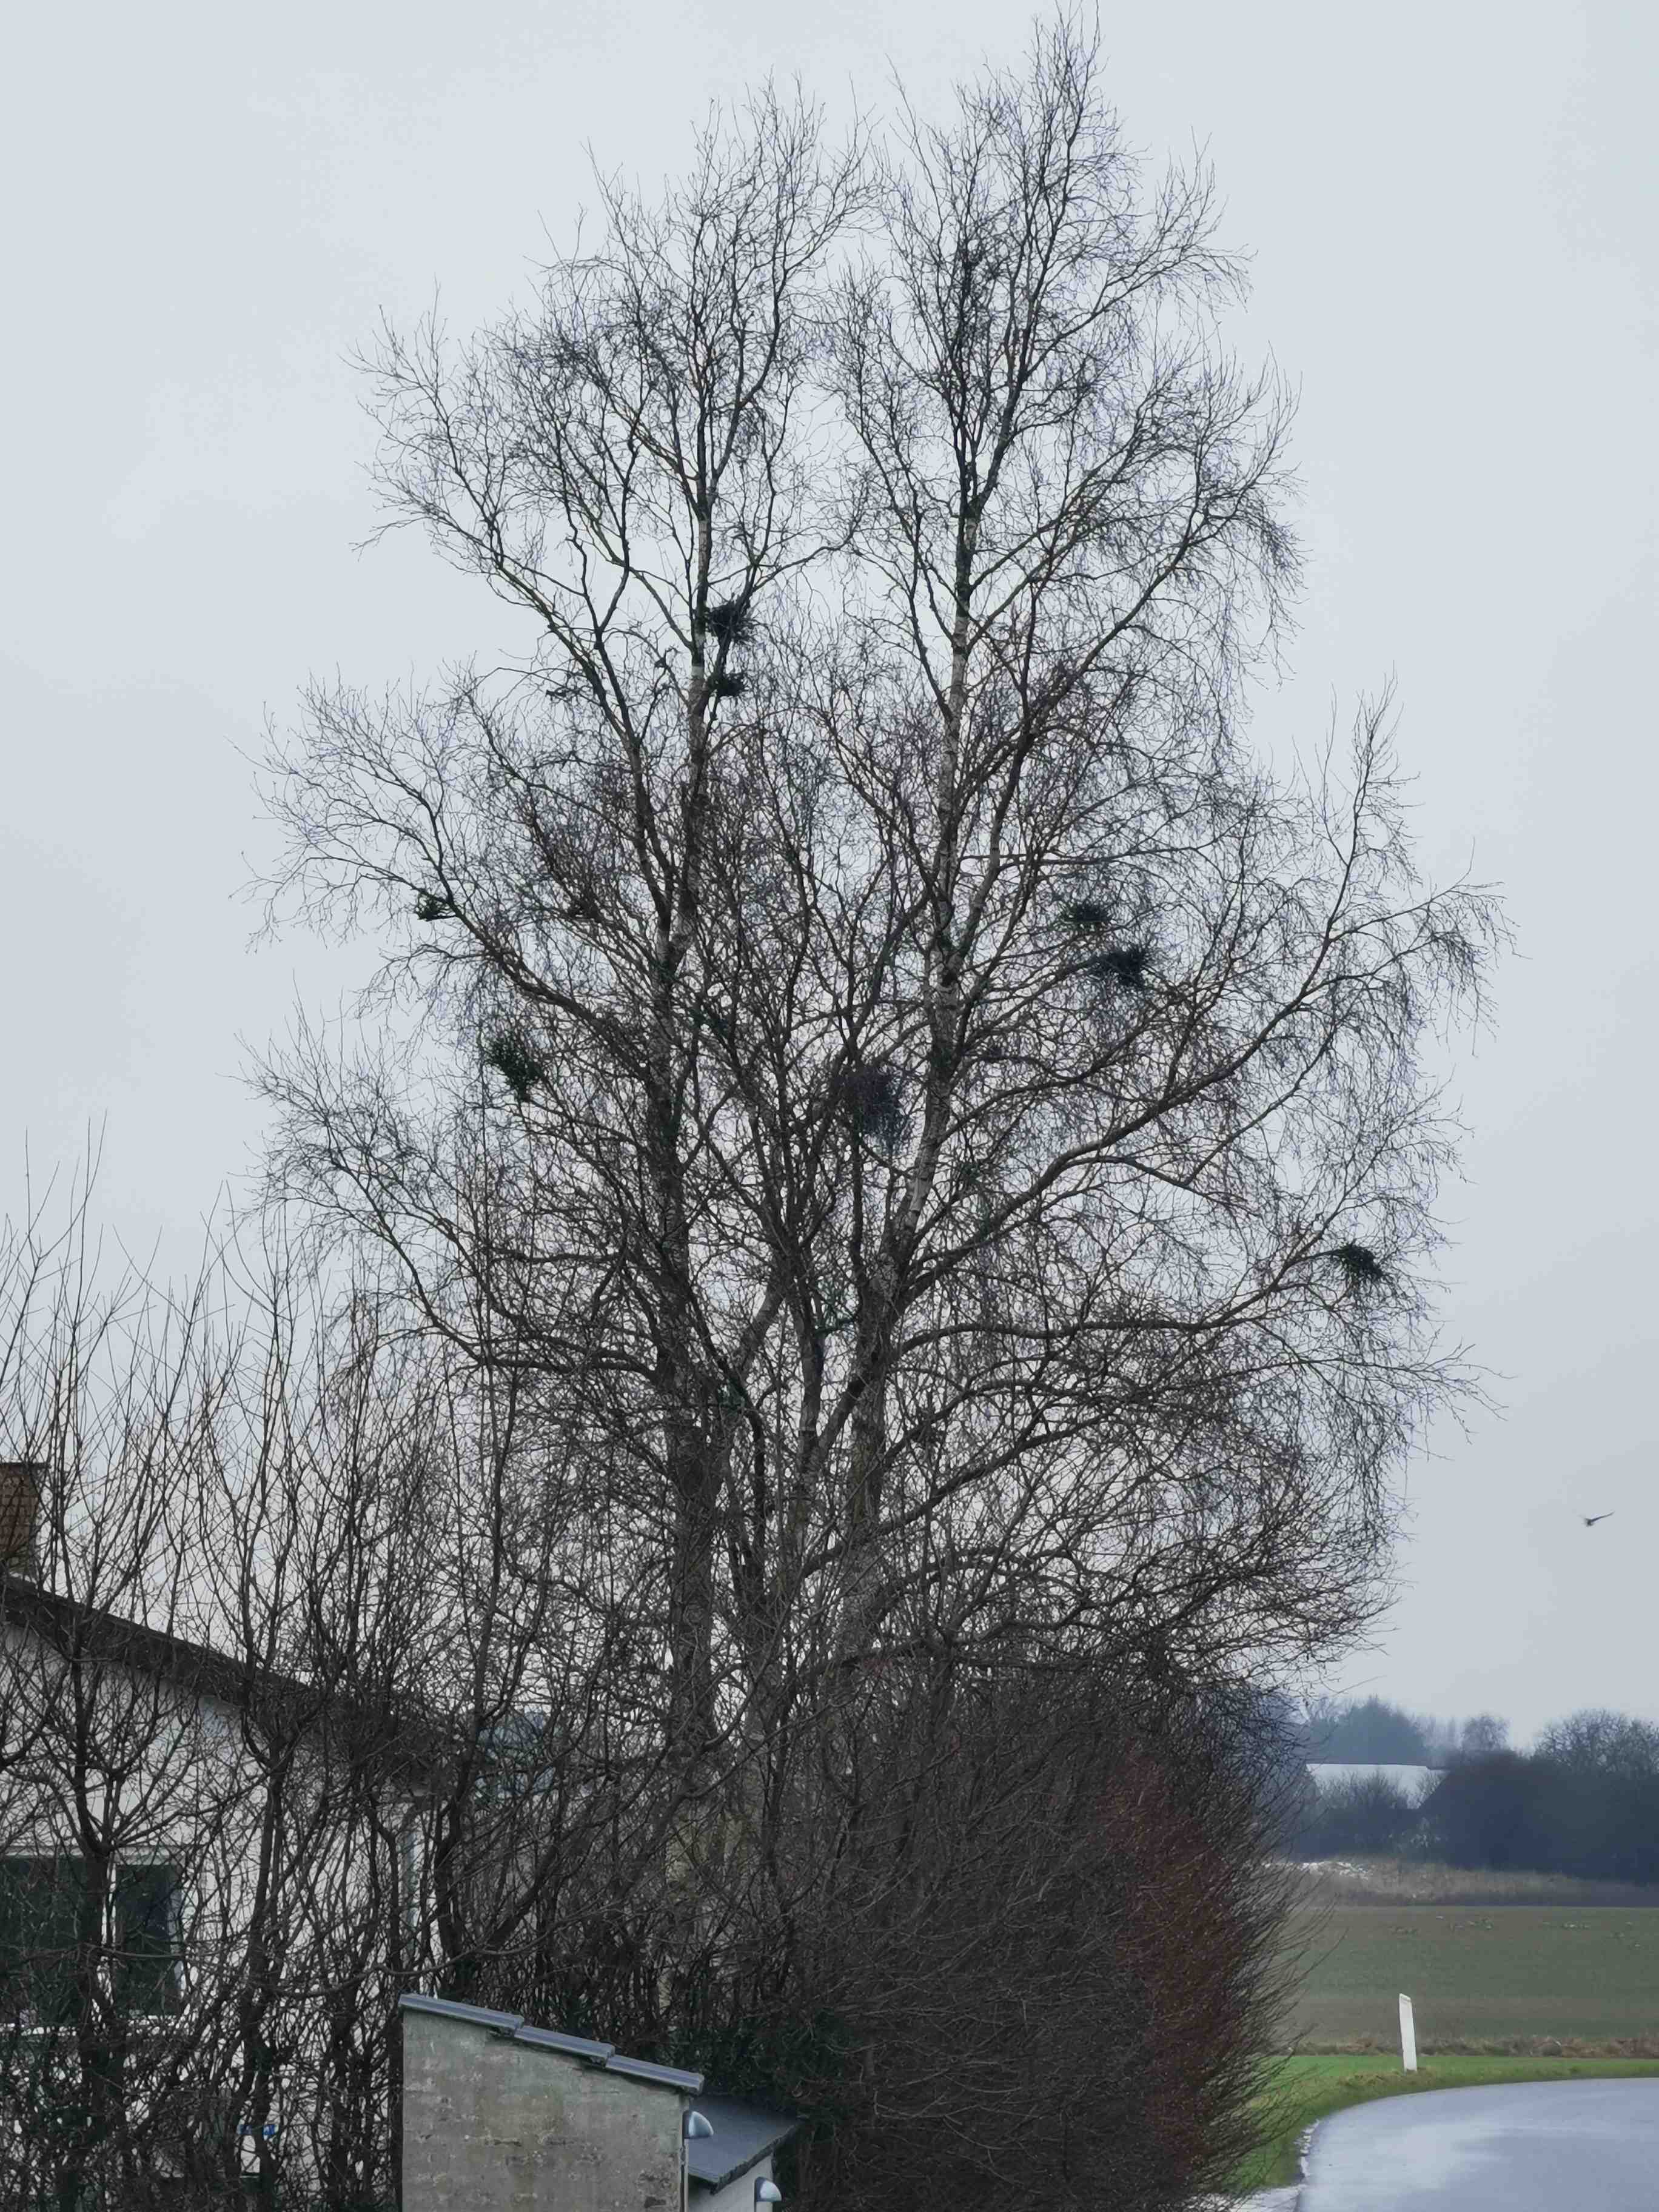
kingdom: Fungi
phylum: Ascomycota
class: Taphrinomycetes
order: Taphrinales
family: Taphrinaceae
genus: Taphrina
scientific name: Taphrina betulina
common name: hekse-sækdug
